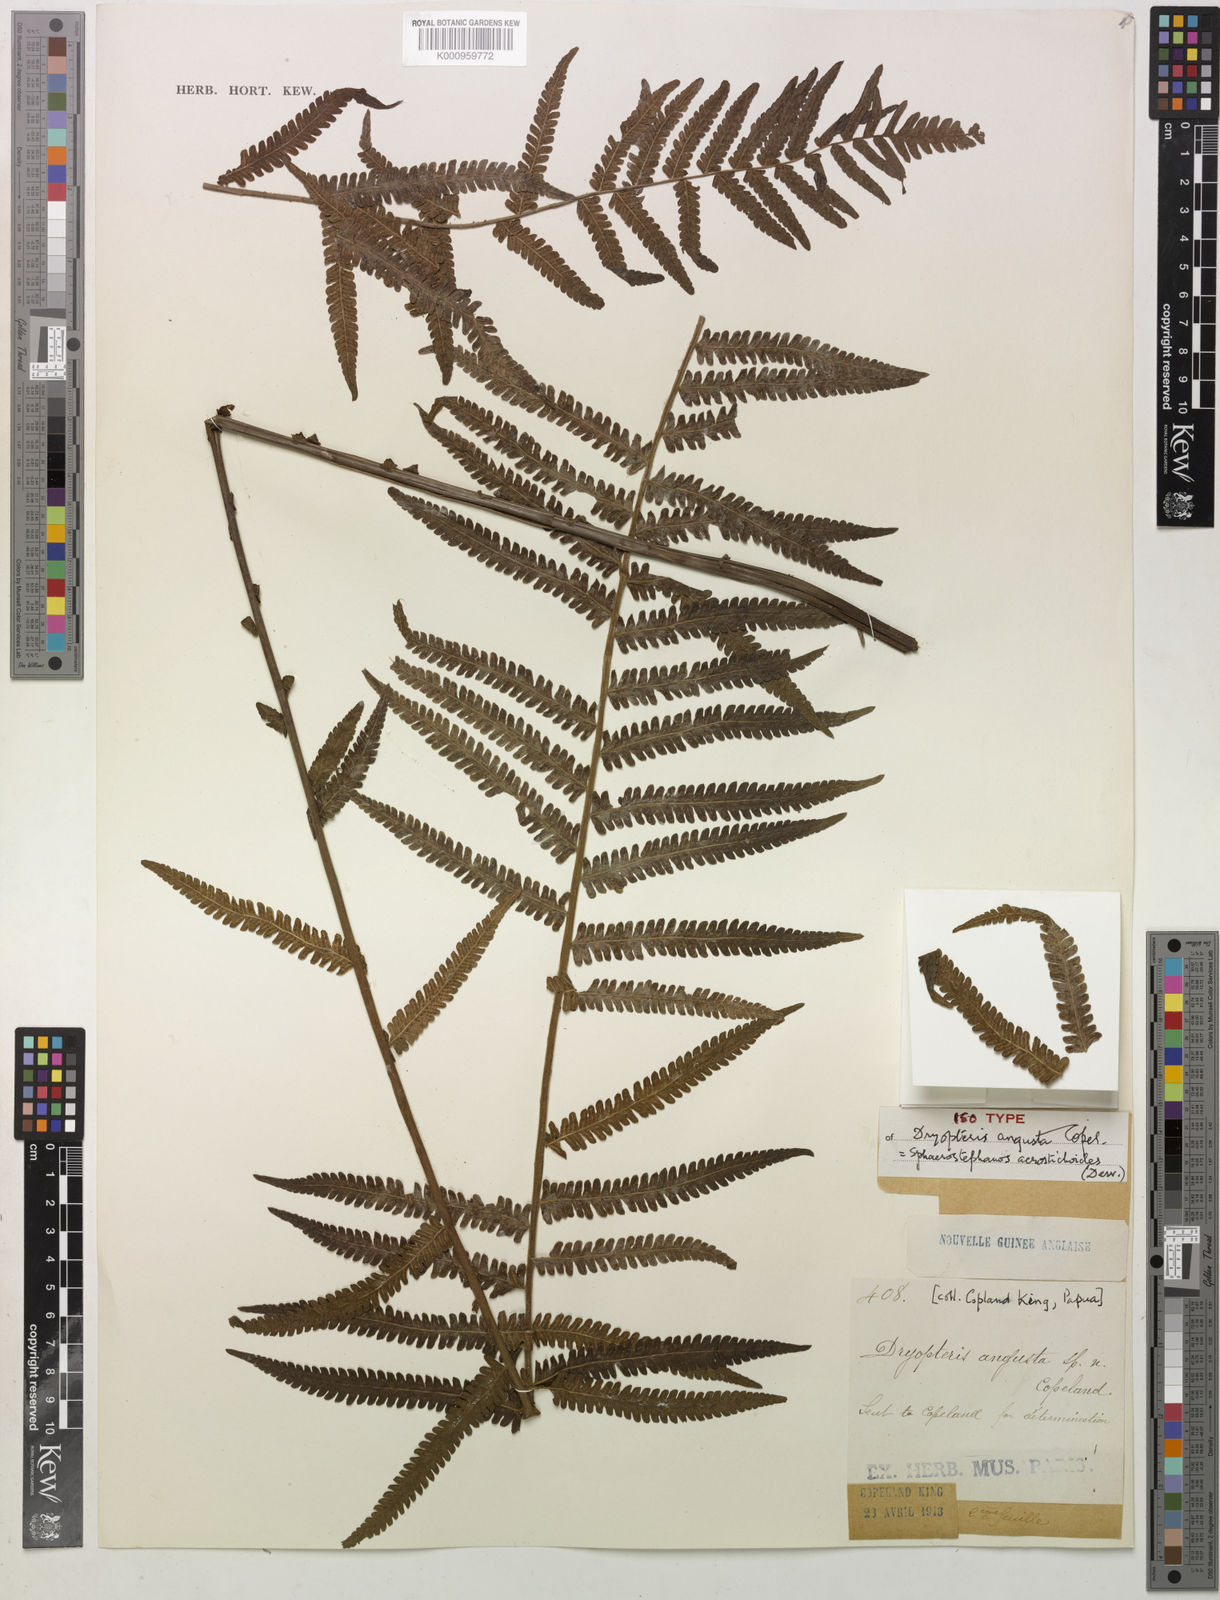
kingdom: Plantae
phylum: Tracheophyta
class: Polypodiopsida
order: Polypodiales
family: Thelypteridaceae
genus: Sphaerostephanos
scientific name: Sphaerostephanos acrostichoides
